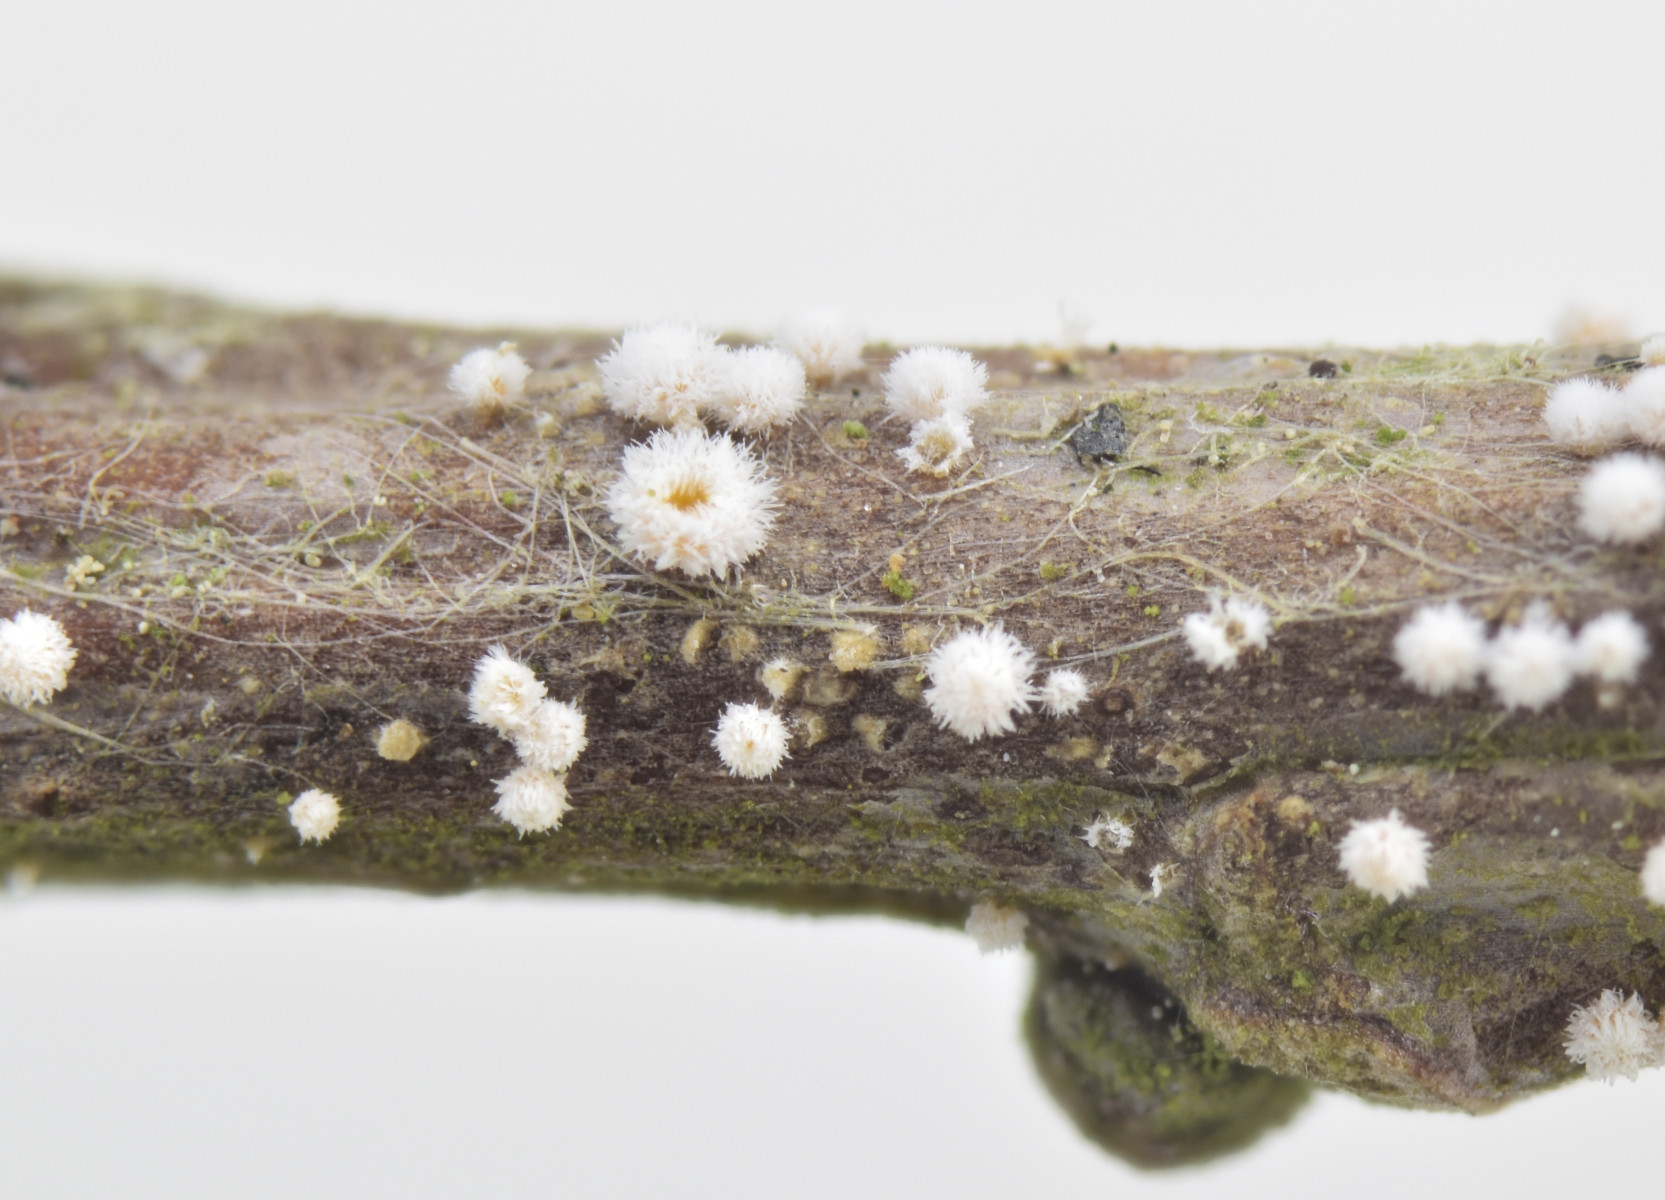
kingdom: Fungi
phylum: Ascomycota
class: Leotiomycetes
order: Helotiales
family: Lachnaceae
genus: Capitotricha
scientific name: Capitotricha bicolor
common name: prægtig frynseskive
